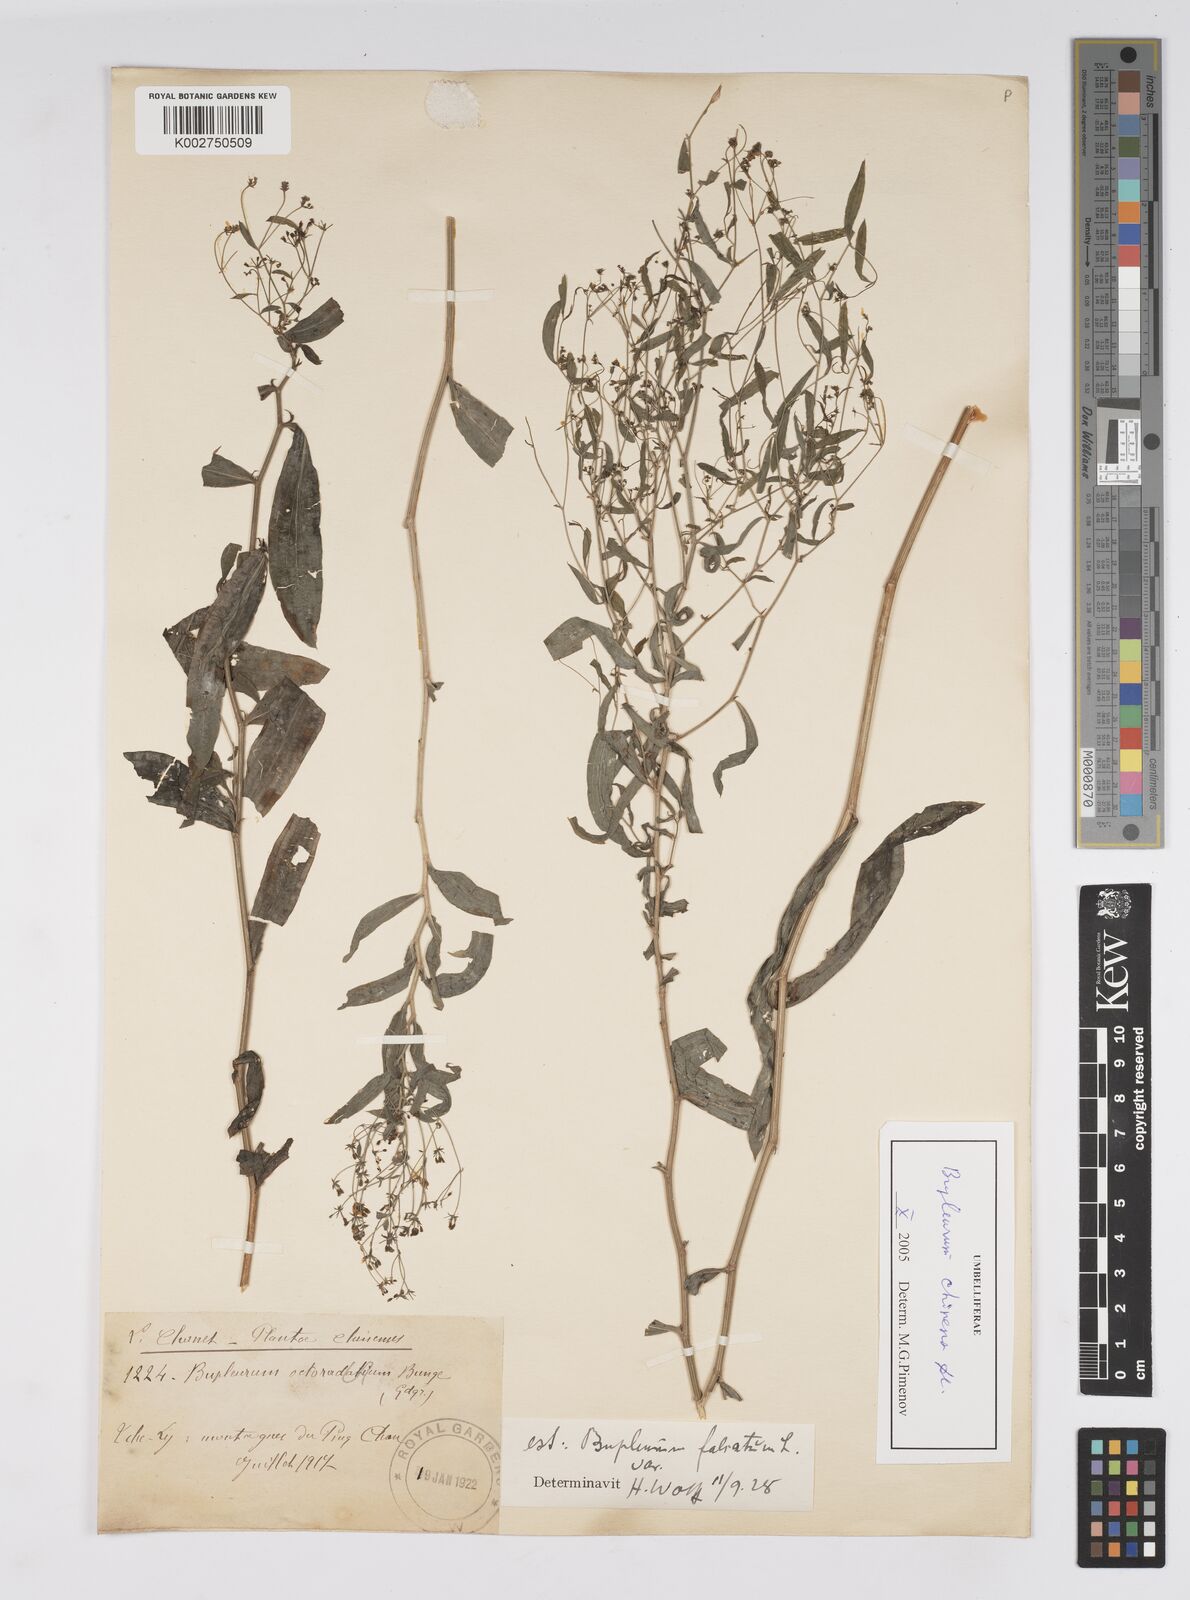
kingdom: Plantae
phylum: Tracheophyta
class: Magnoliopsida
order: Apiales
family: Apiaceae
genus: Bupleurum
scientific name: Bupleurum falcatum
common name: Sickle-leaved hare's-ear
